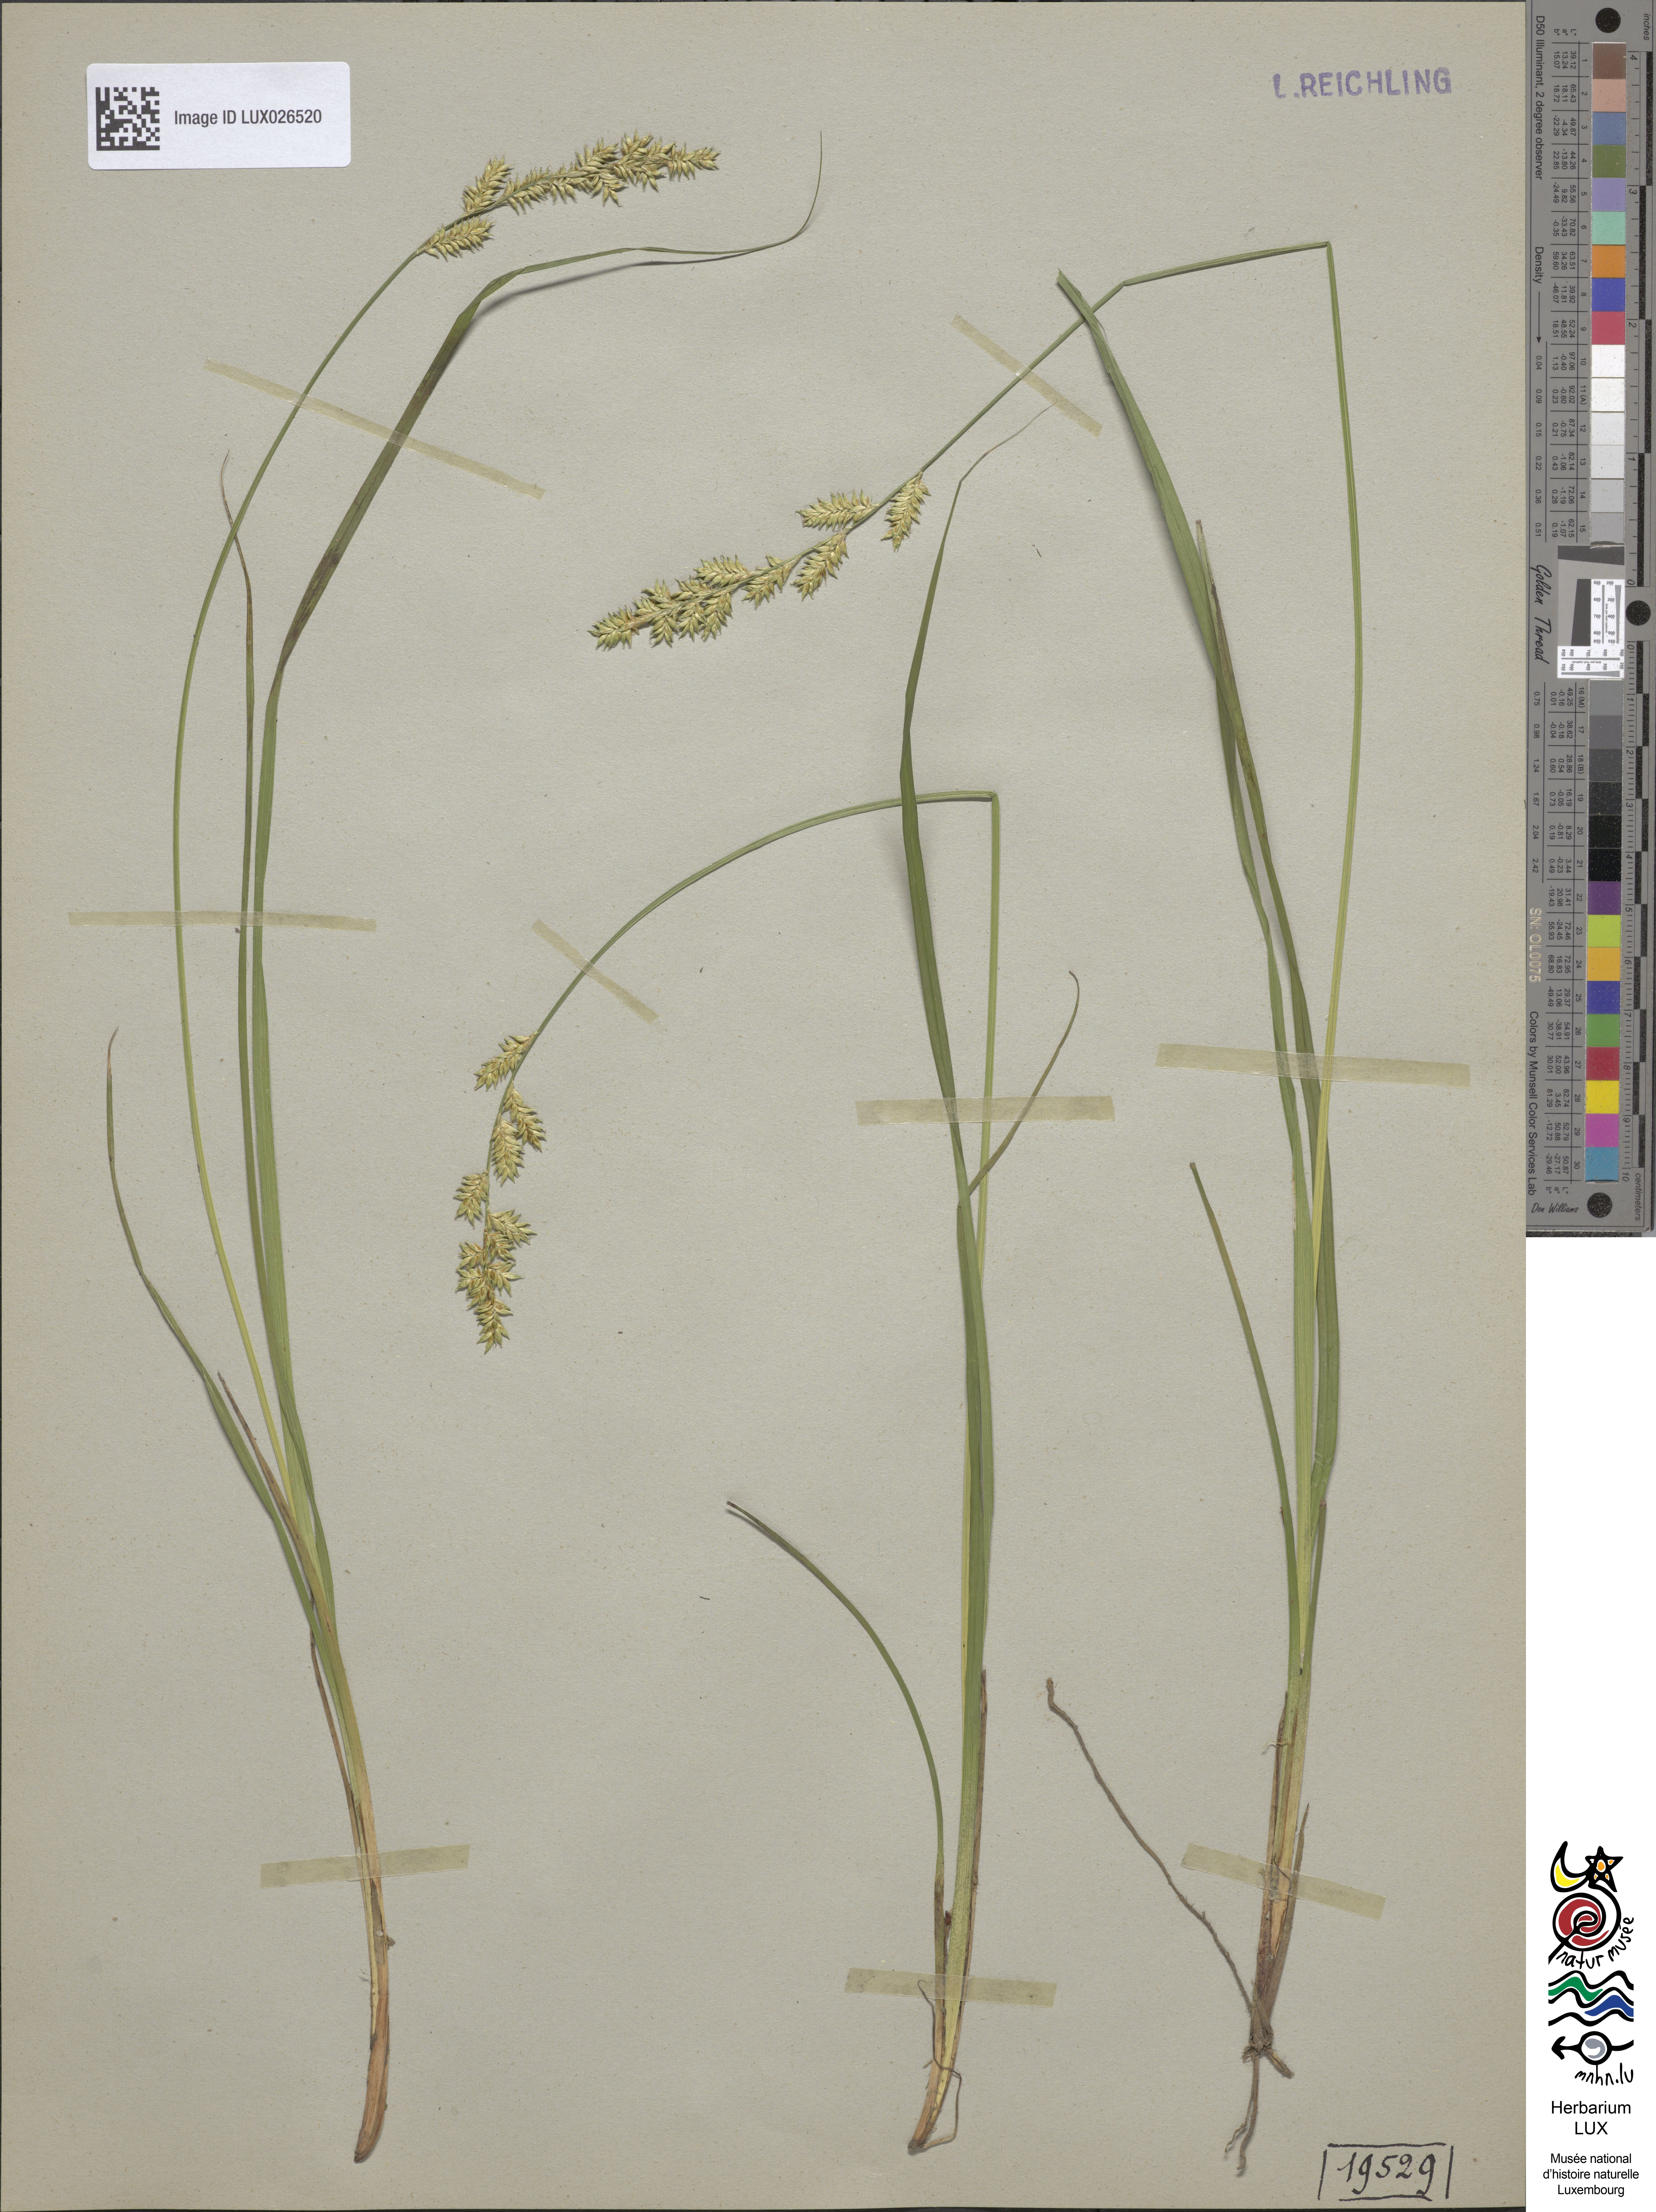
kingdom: Plantae
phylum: Tracheophyta
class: Liliopsida
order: Poales
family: Cyperaceae
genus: Carex
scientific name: Carex elongata
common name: Elongated sedge
